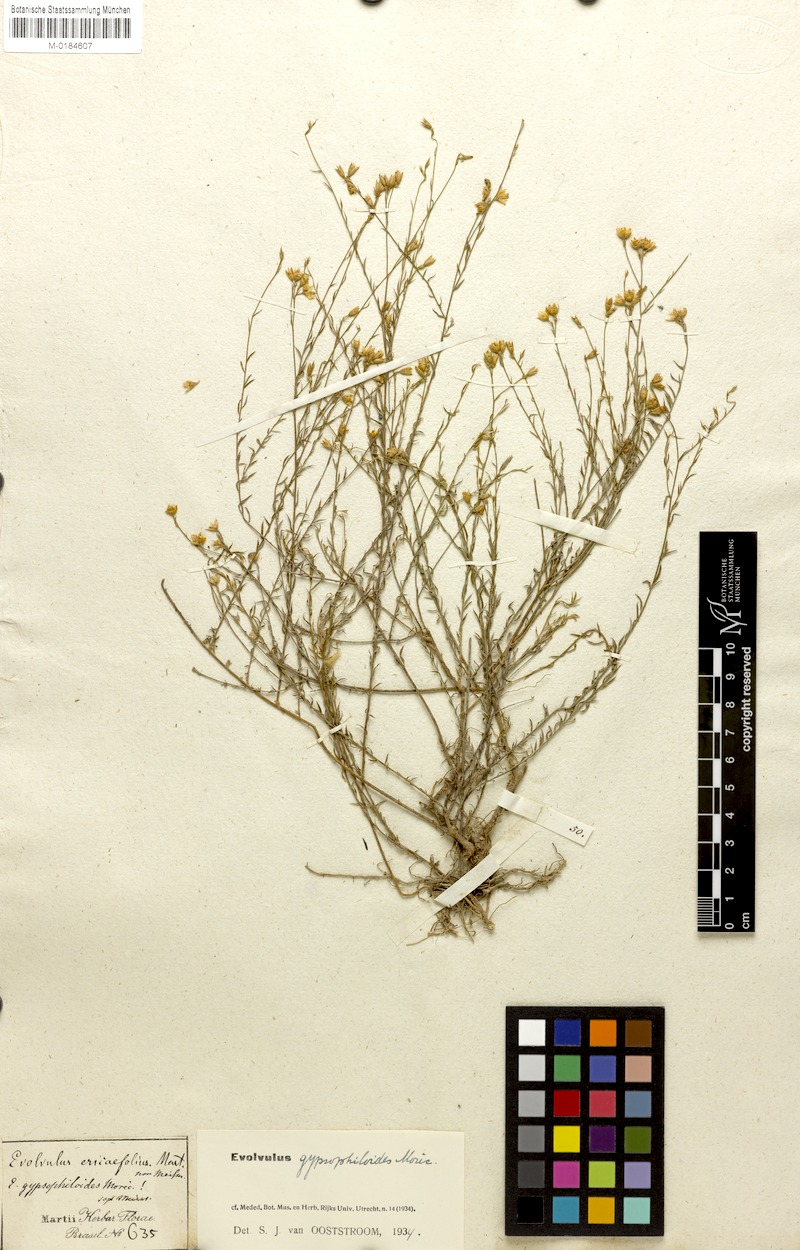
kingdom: Plantae
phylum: Tracheophyta
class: Magnoliopsida
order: Solanales
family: Convolvulaceae
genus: Evolvulus
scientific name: Evolvulus gypsophiloides
